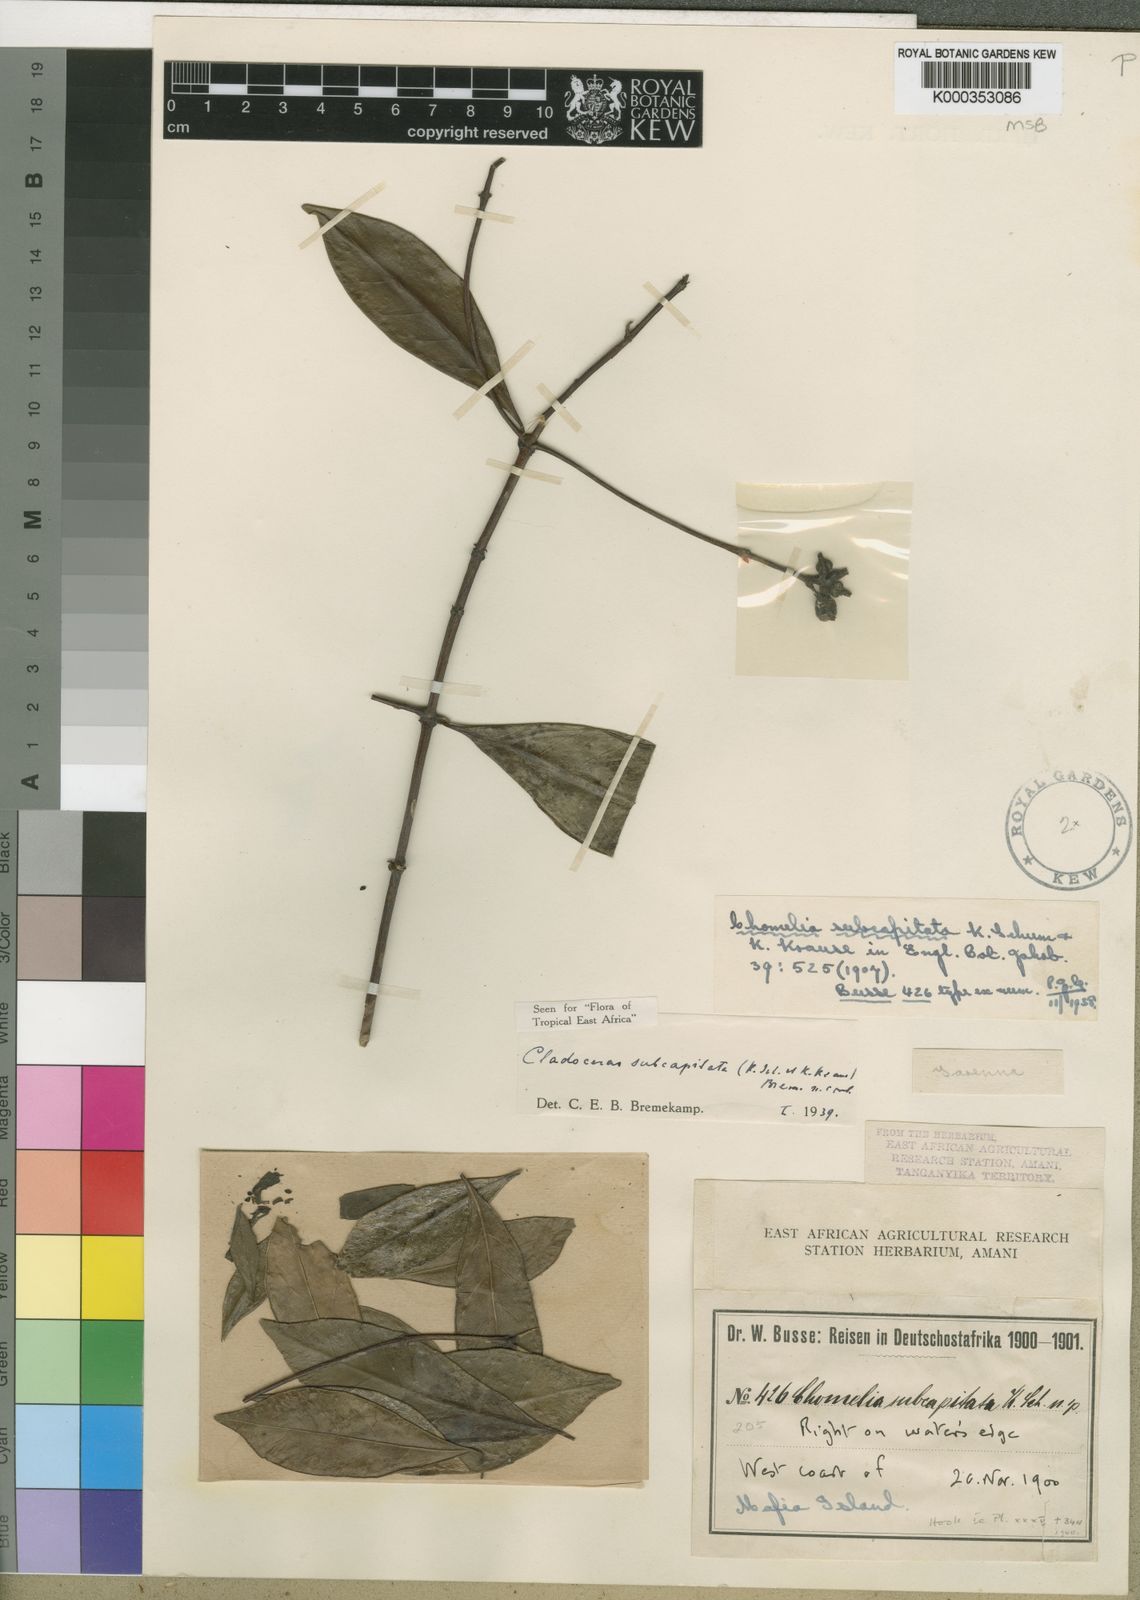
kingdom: Plantae
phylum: Tracheophyta
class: Magnoliopsida
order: Gentianales
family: Rubiaceae
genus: Cladoceras
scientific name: Cladoceras subcapitatum
